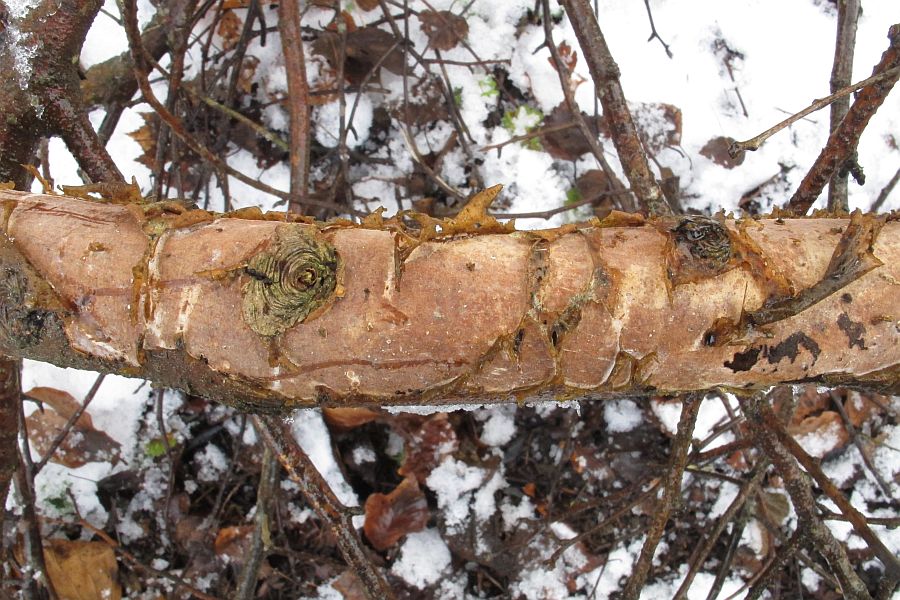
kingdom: Fungi
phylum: Basidiomycota
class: Agaricomycetes
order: Corticiales
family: Vuilleminiaceae
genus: Vuilleminia
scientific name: Vuilleminia cystidiata
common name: tjørne-barksprænger
